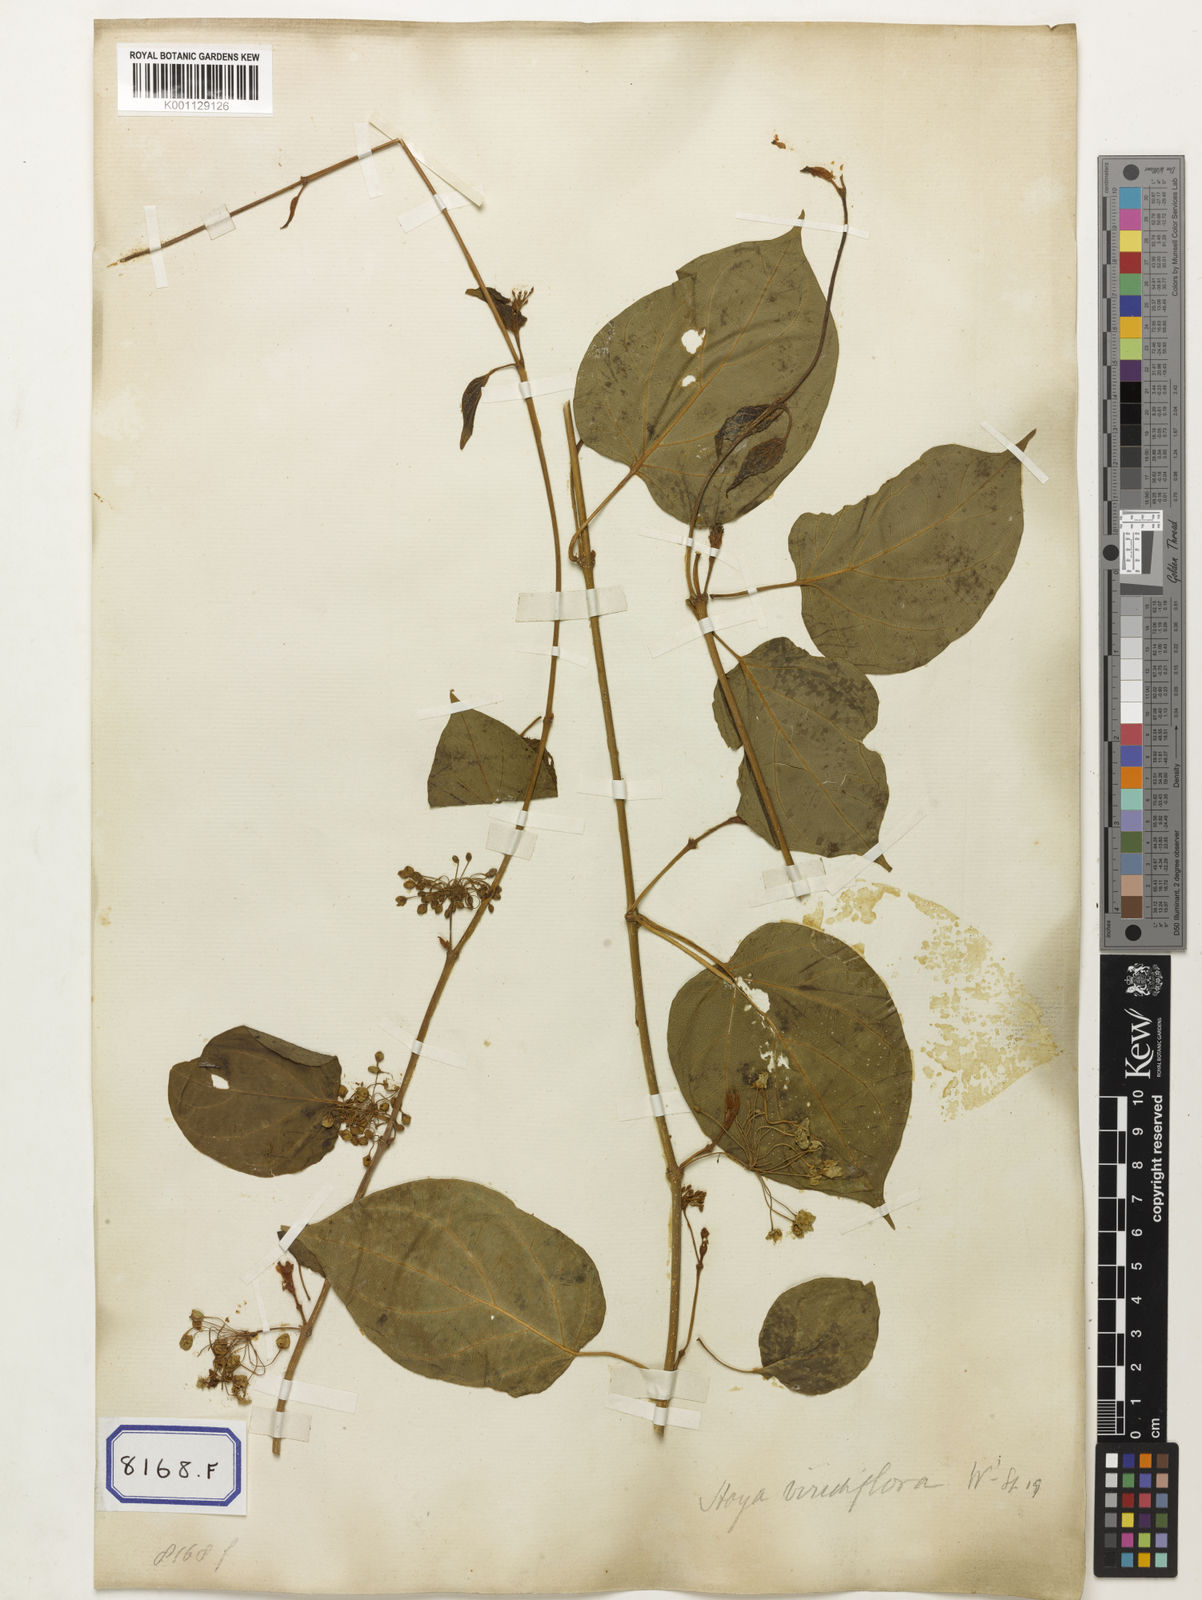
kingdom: Plantae
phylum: Tracheophyta
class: Magnoliopsida
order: Gentianales
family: Apocynaceae
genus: Stephanotis
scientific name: Stephanotis volubilis
